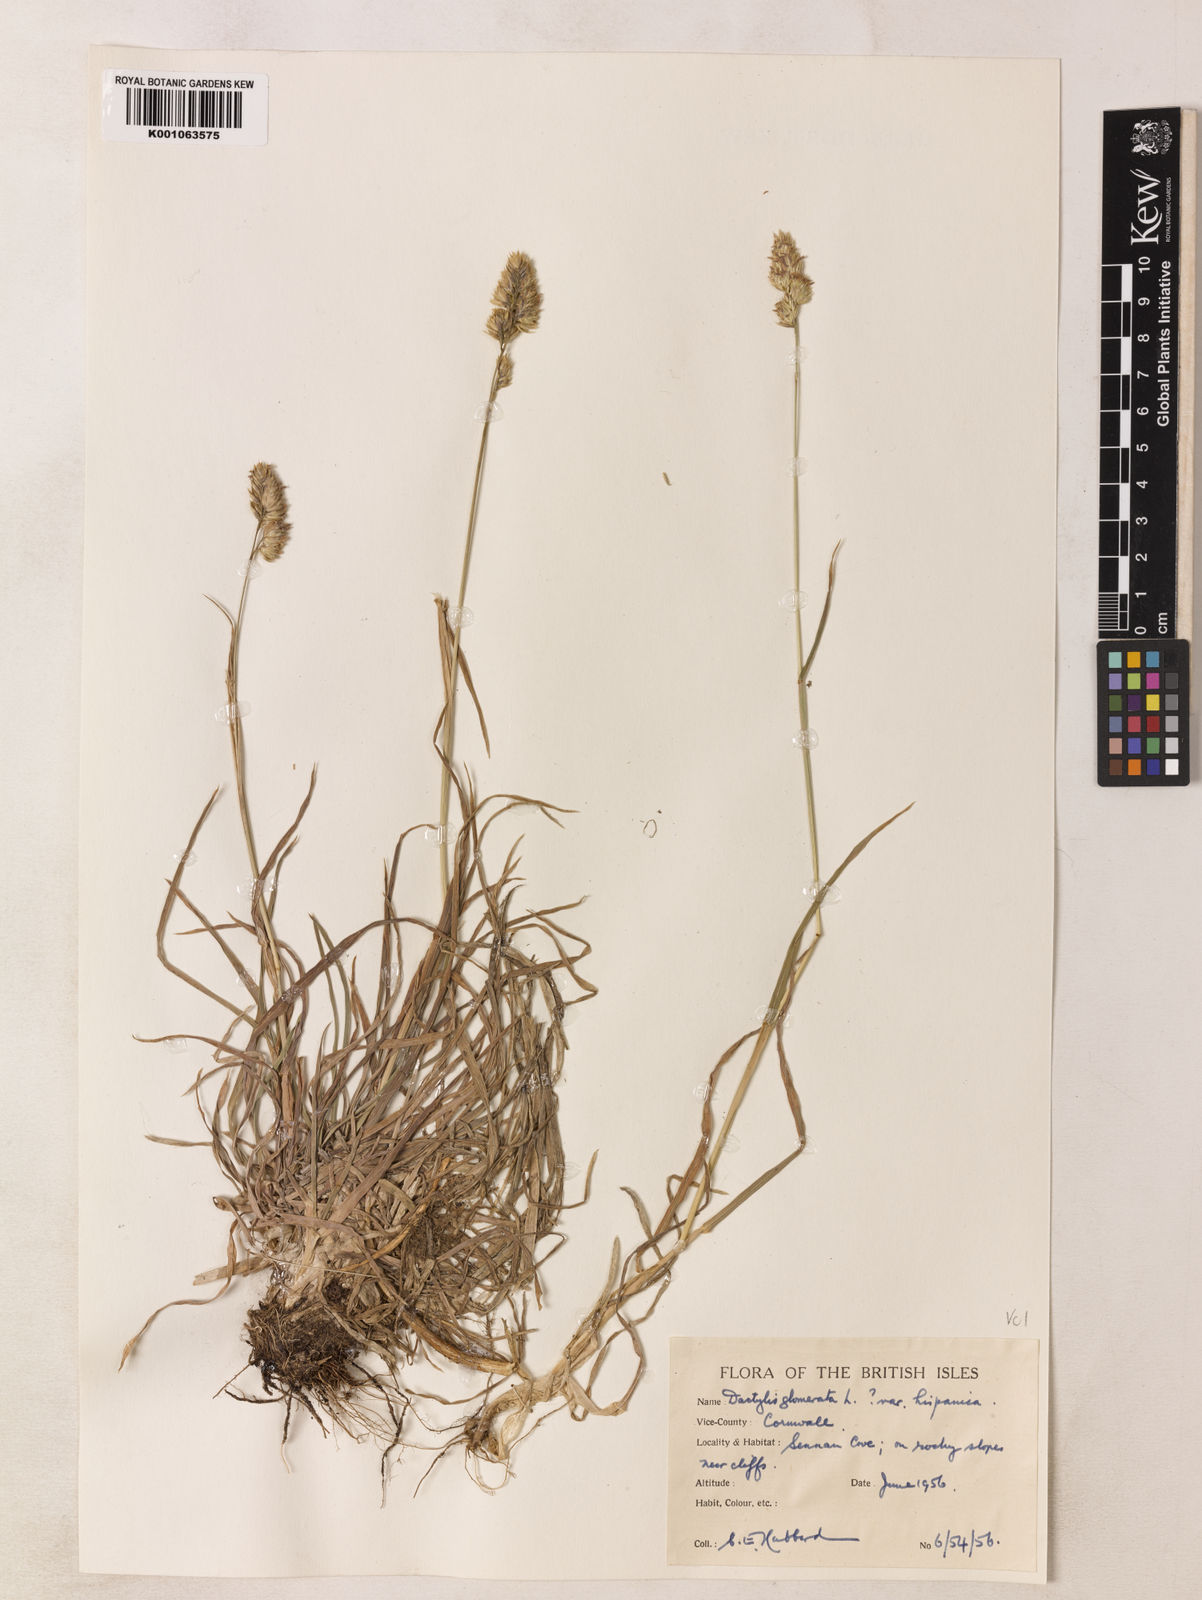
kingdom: Plantae
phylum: Tracheophyta
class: Liliopsida
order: Poales
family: Poaceae
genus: Dactylis
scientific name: Dactylis glomerata
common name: Orchardgrass
